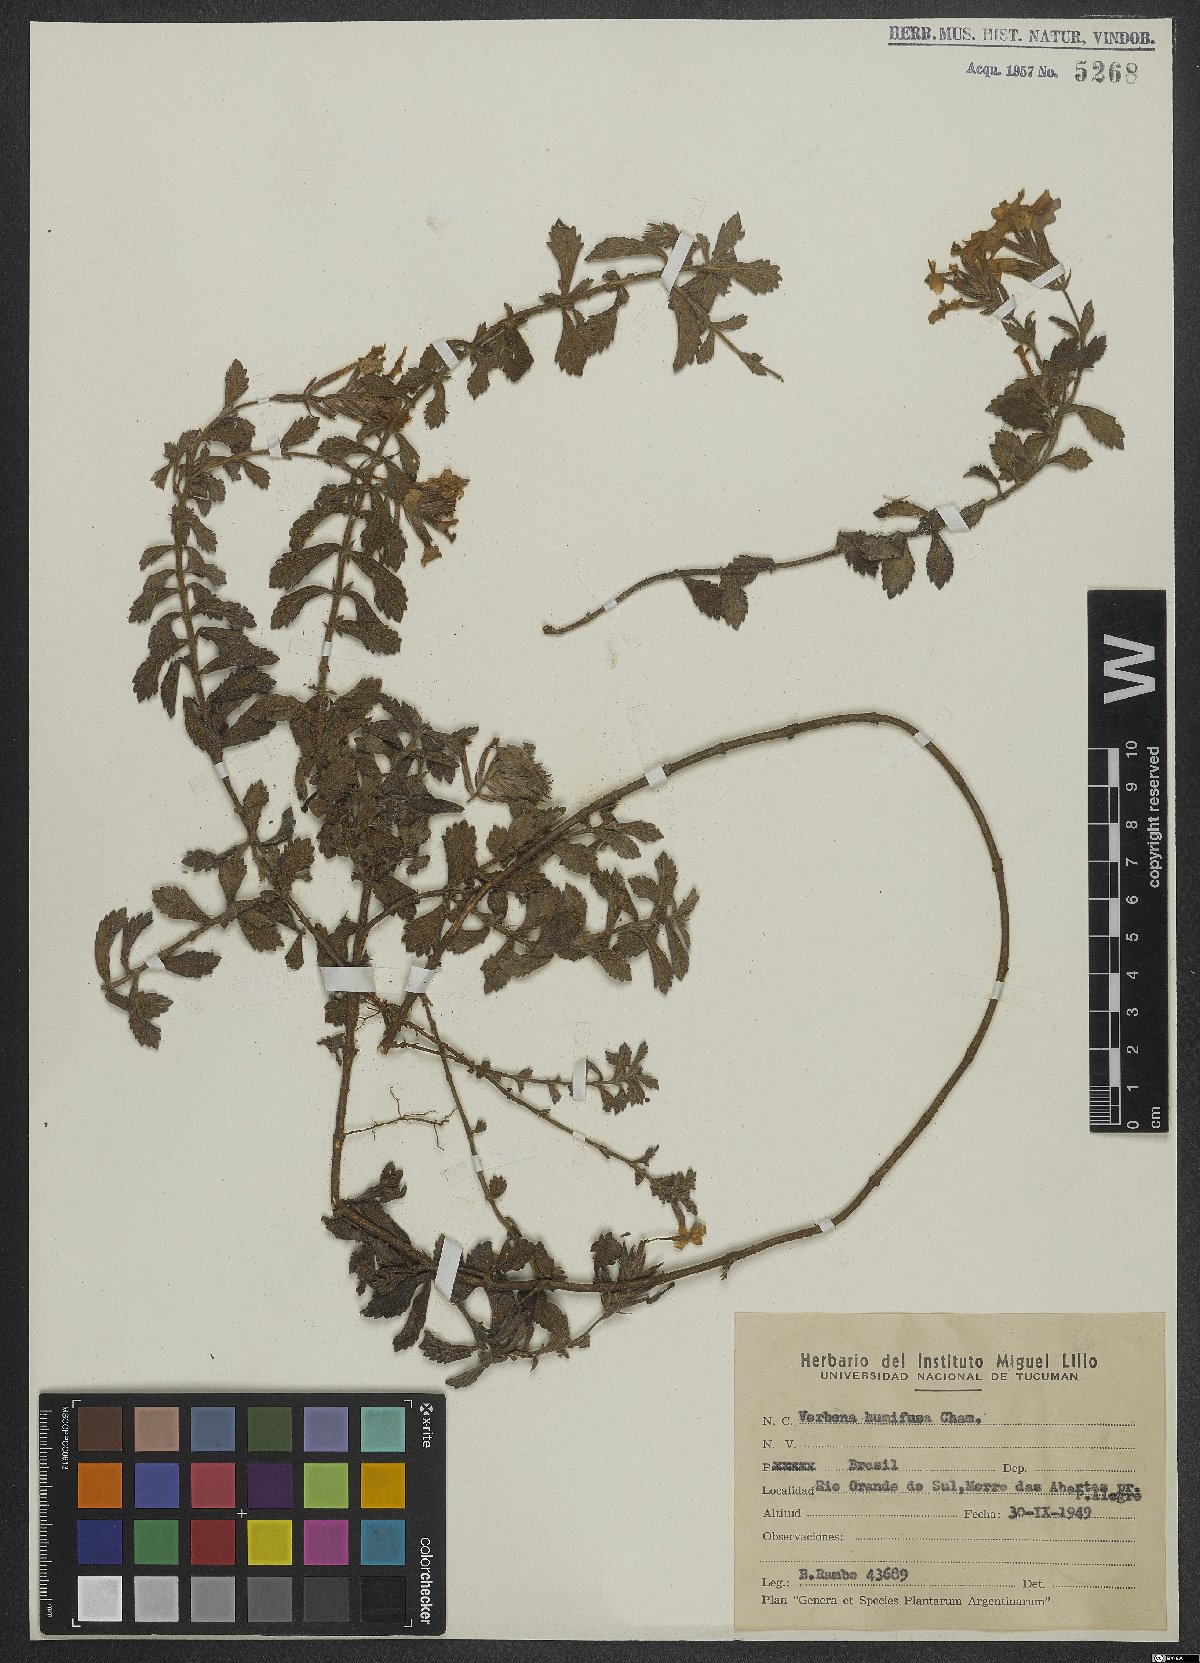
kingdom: Plantae
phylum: Tracheophyta
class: Magnoliopsida
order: Lamiales
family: Verbenaceae
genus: Verbena
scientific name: Verbena humifusa
